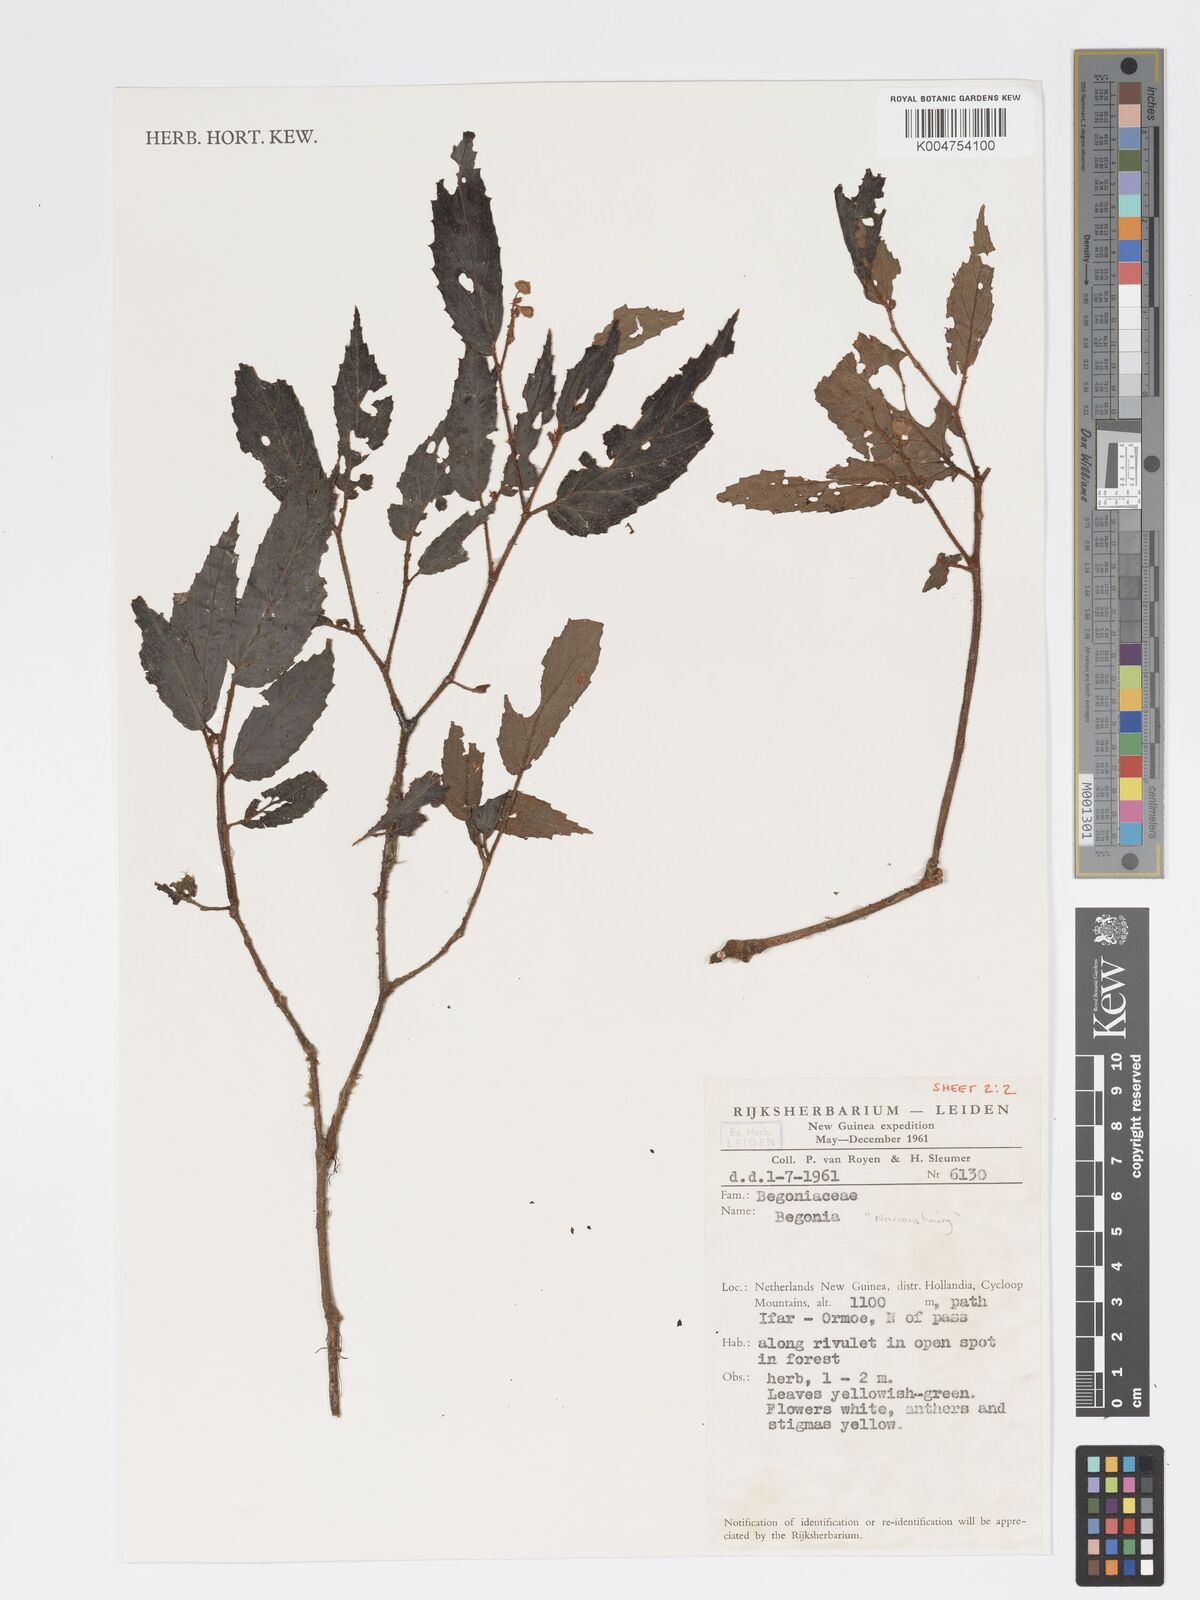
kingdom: Plantae
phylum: Tracheophyta
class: Magnoliopsida
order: Cucurbitales
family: Begoniaceae
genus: Begonia
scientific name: Begonia
